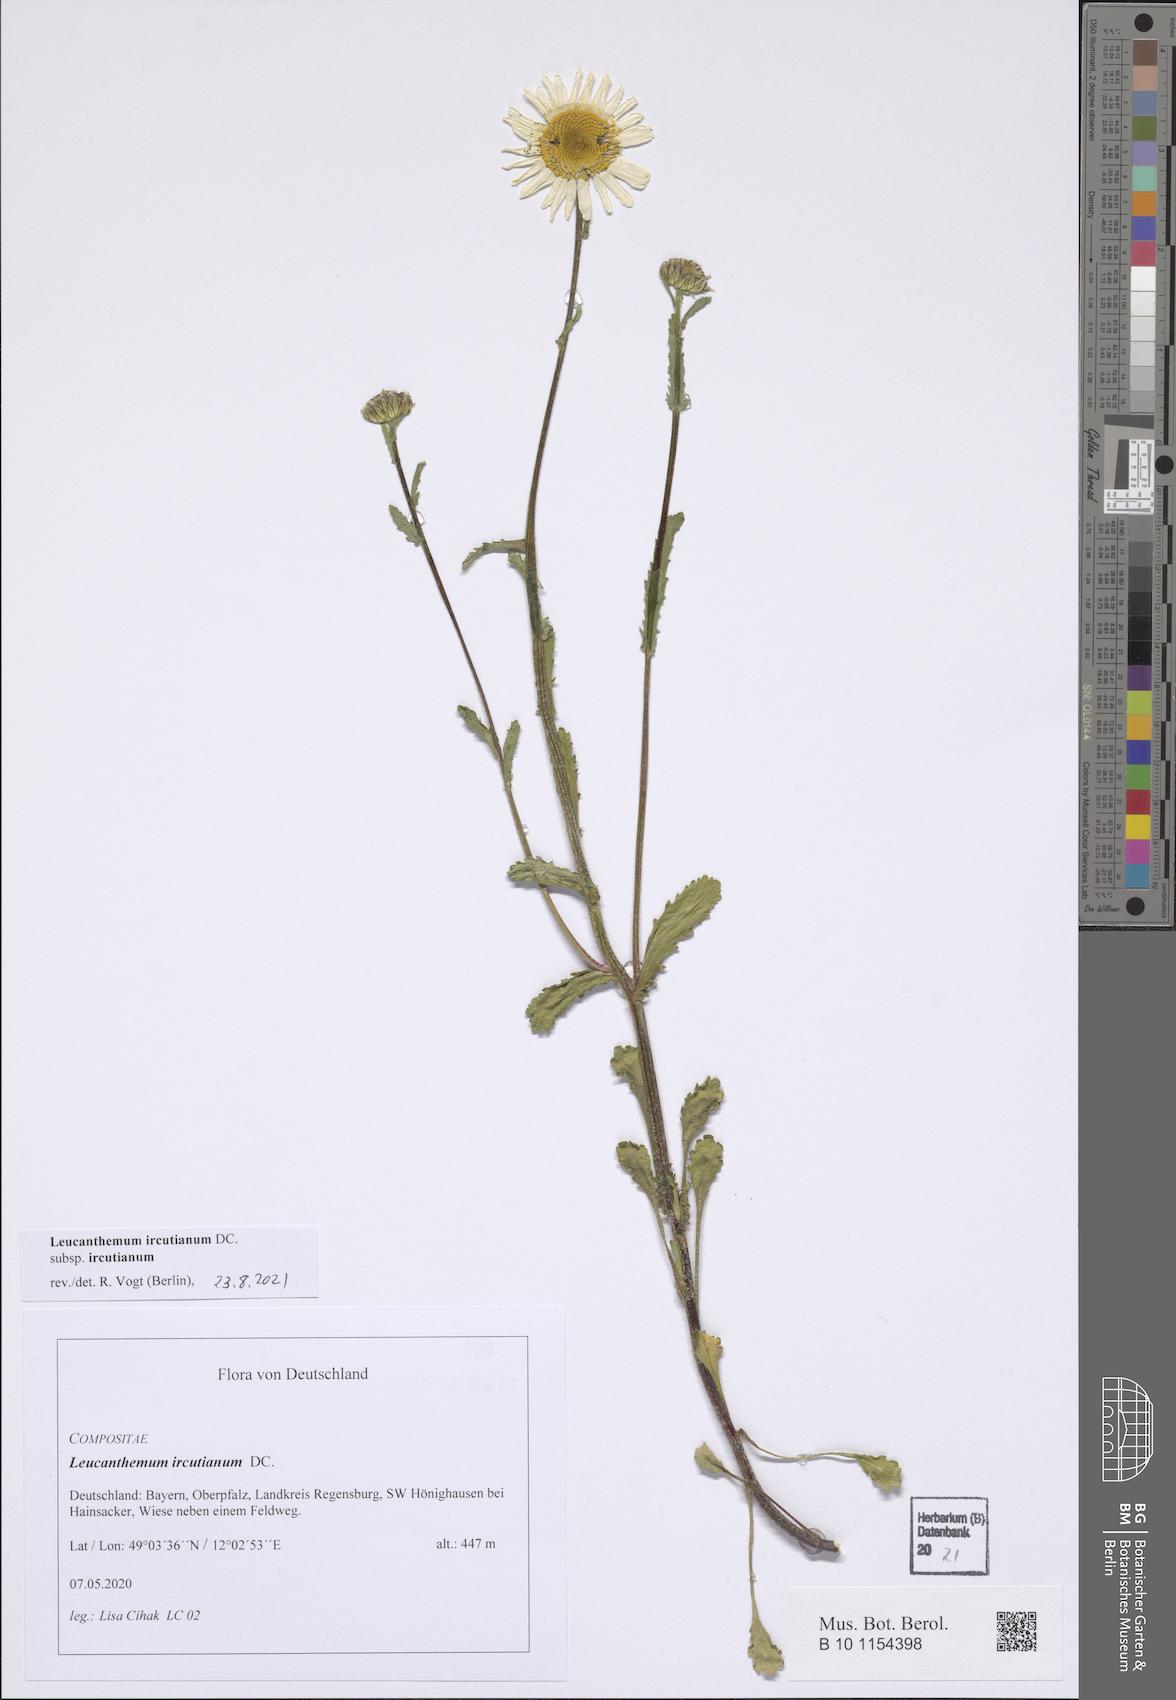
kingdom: Plantae
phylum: Tracheophyta
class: Magnoliopsida
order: Asterales
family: Asteraceae
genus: Leucanthemum
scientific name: Leucanthemum ircutianum
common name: Daisy
